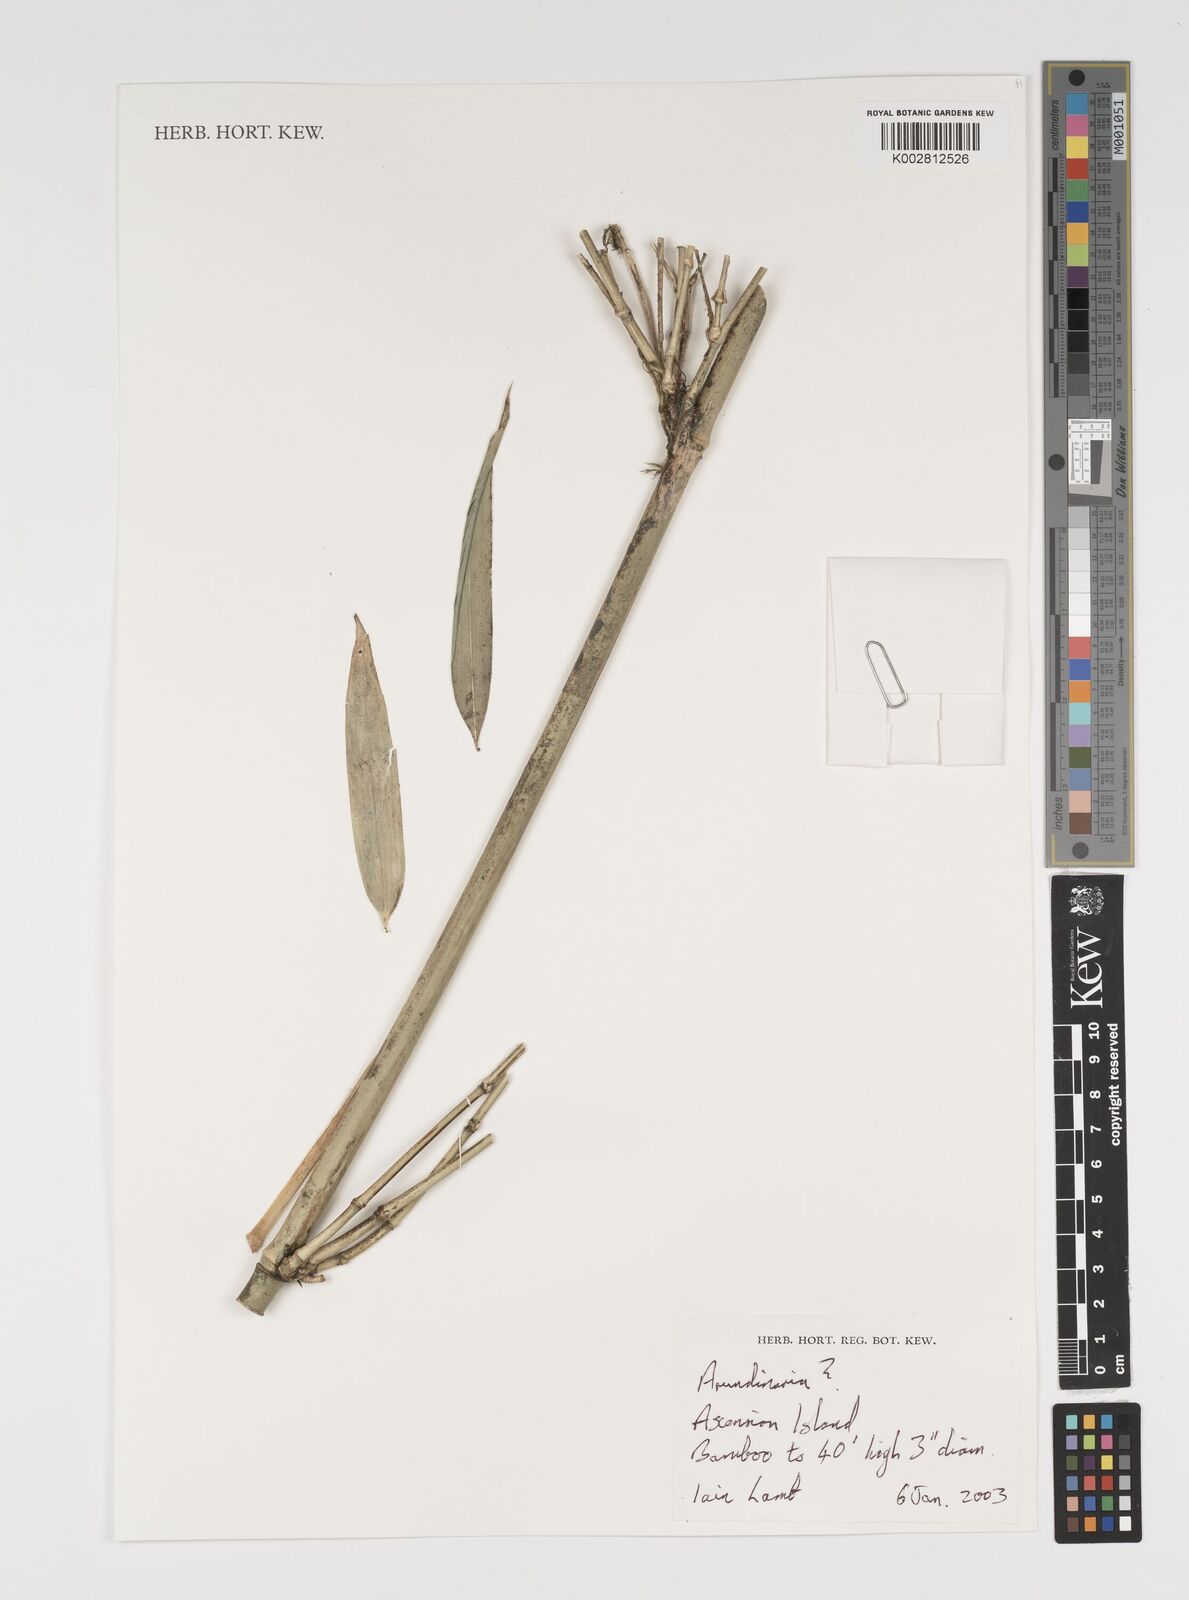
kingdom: Plantae
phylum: Tracheophyta
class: Liliopsida
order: Poales
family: Poaceae
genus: Arundinaria
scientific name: Arundinaria
